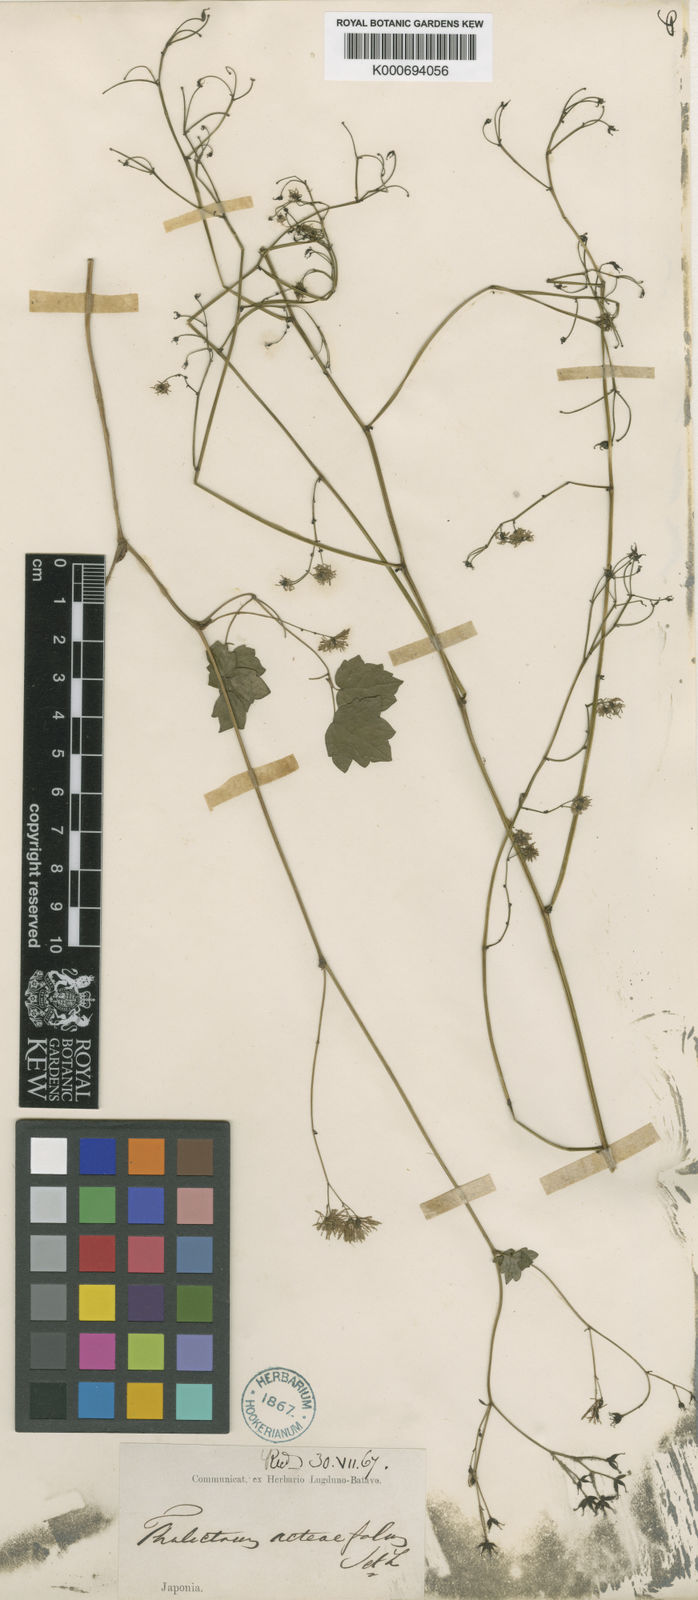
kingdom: Plantae
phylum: Tracheophyta
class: Magnoliopsida
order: Ranunculales
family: Ranunculaceae
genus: Thalictrum
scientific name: Thalictrum actaeifolium
